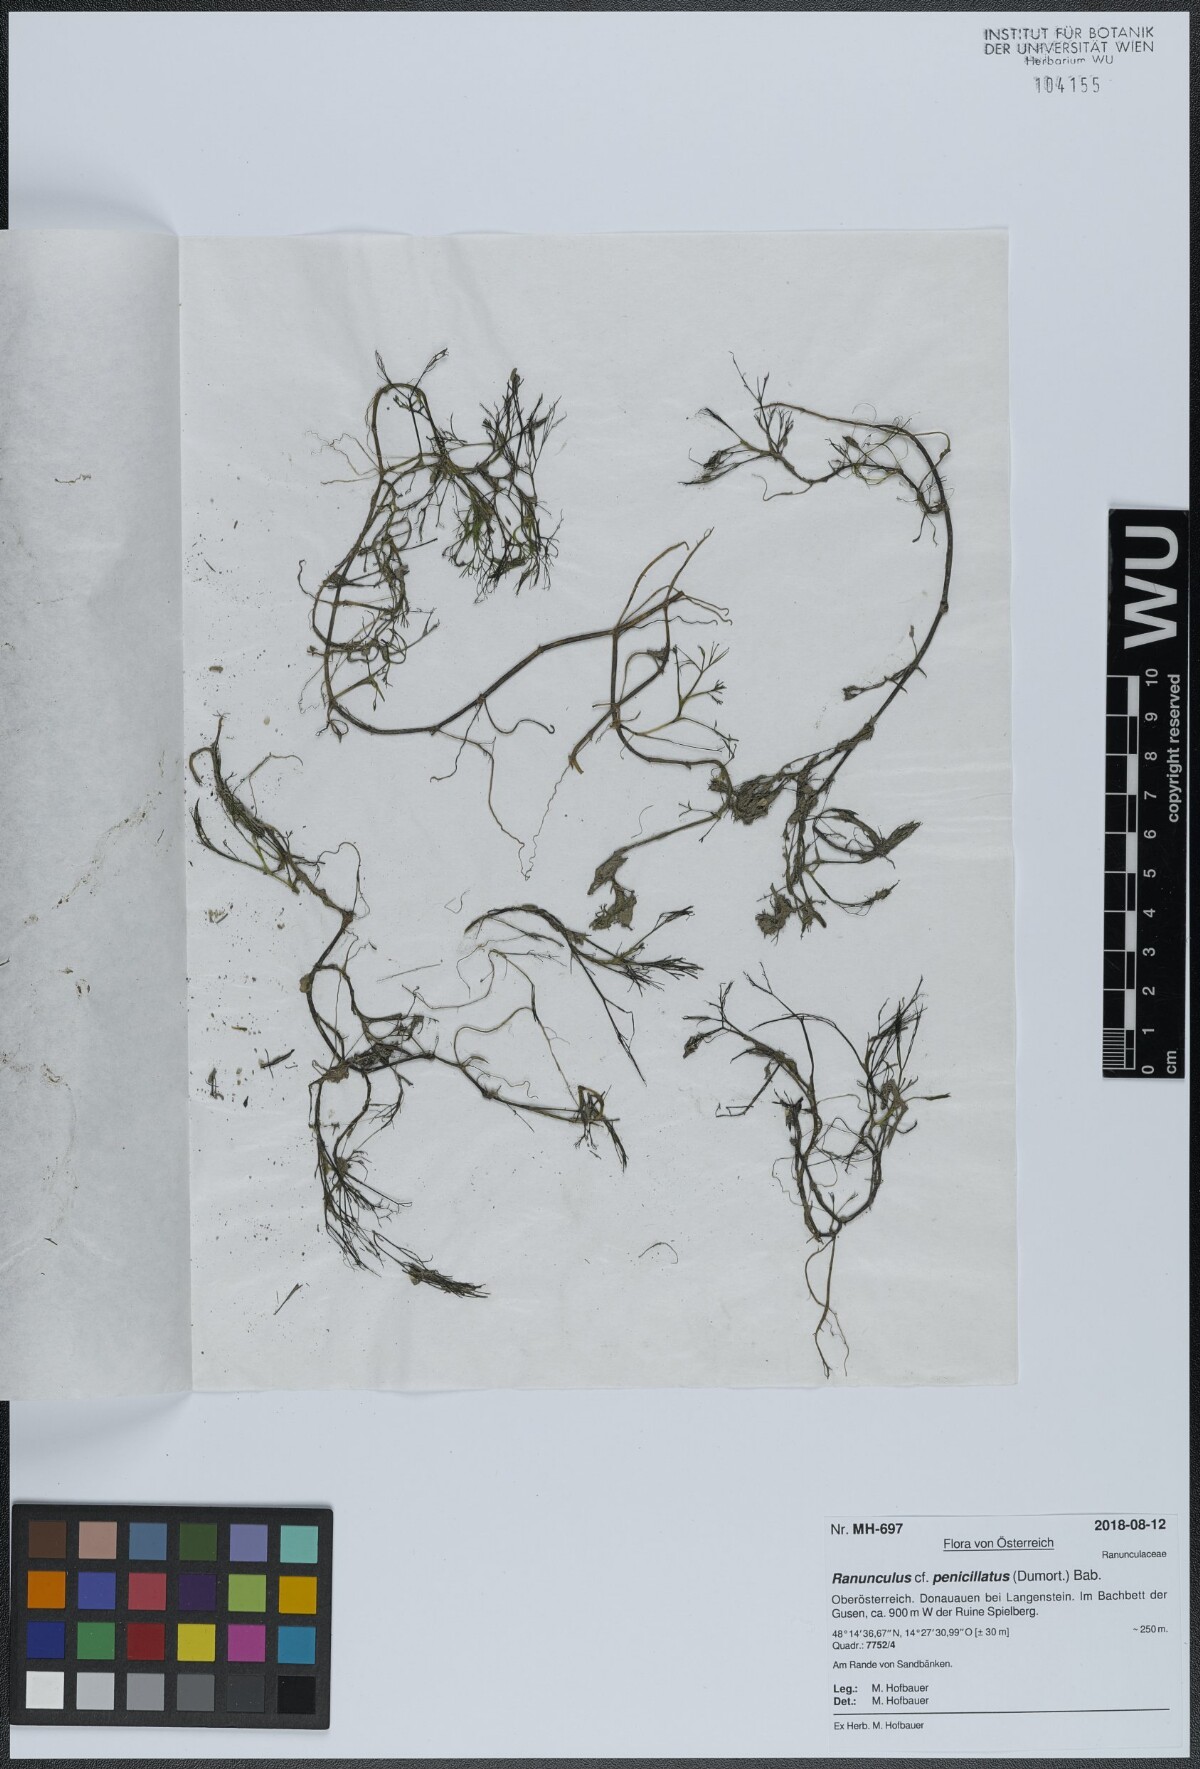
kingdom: Plantae
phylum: Tracheophyta
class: Magnoliopsida
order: Ranunculales
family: Ranunculaceae
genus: Ranunculus
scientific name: Ranunculus penicillatus
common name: Stream water-crowfoot
